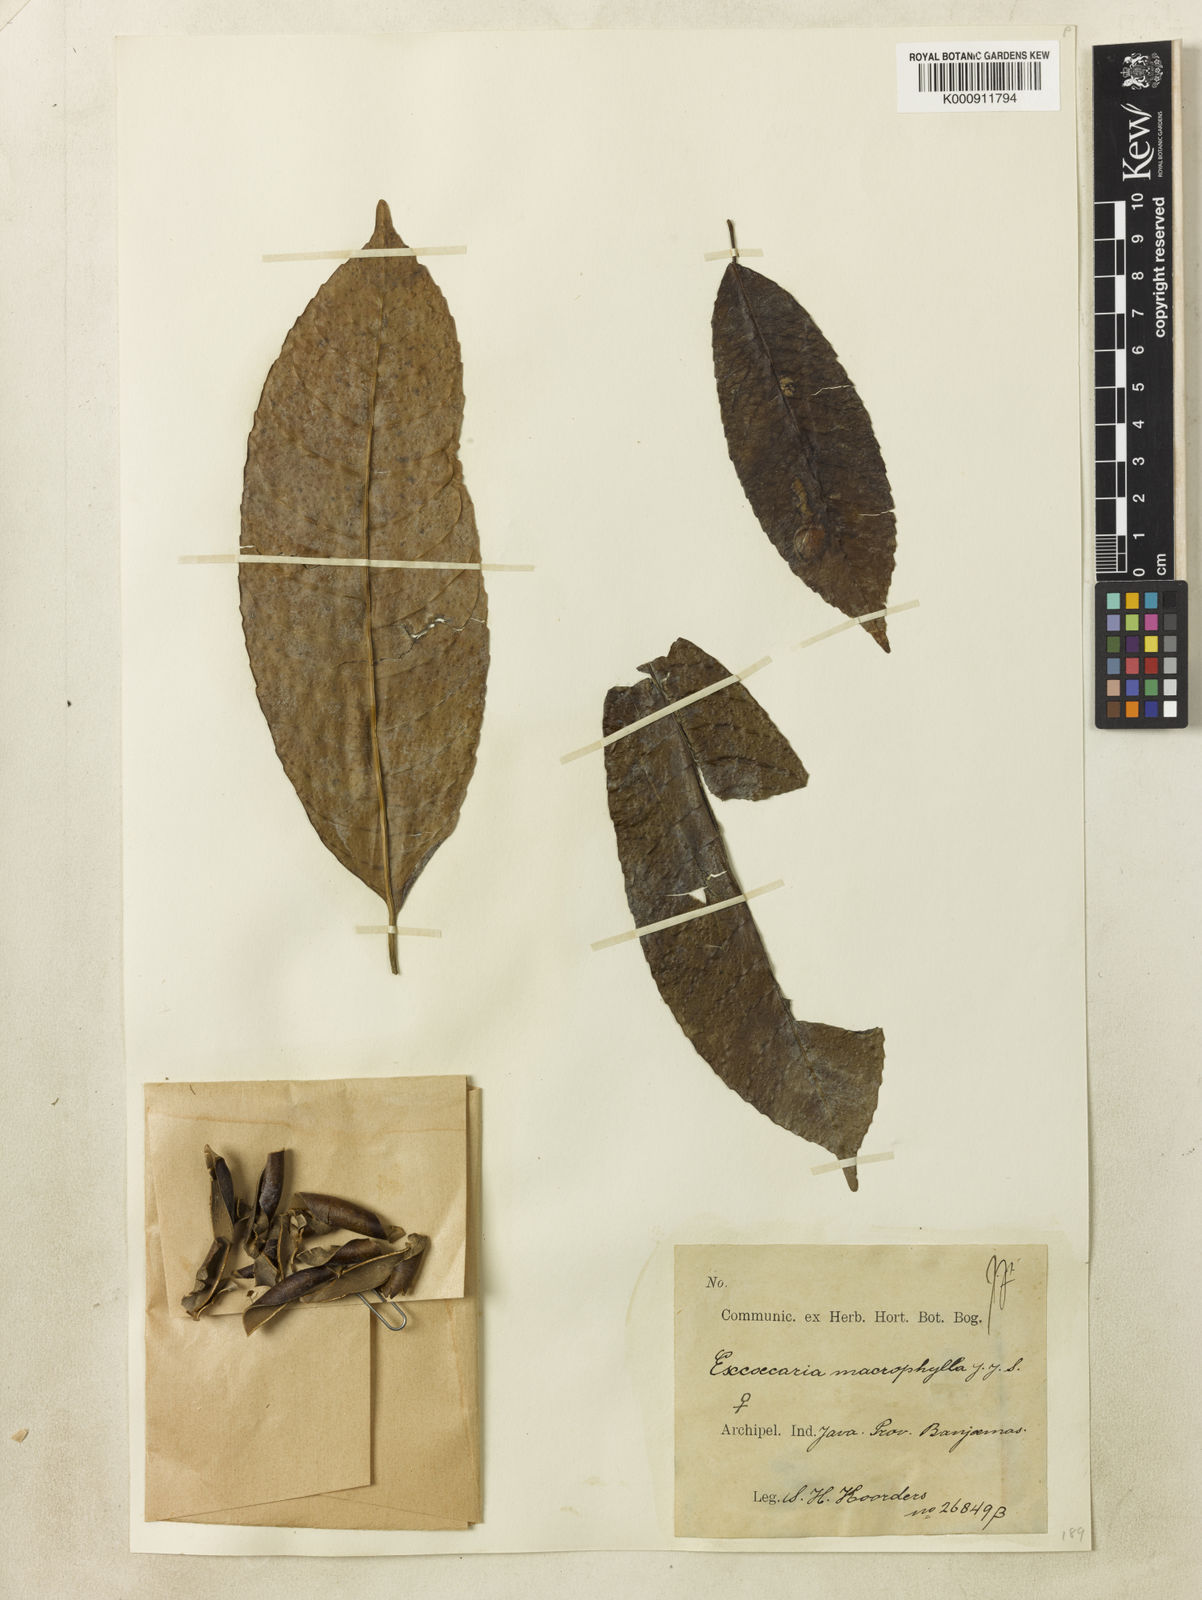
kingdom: Plantae
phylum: Tracheophyta
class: Magnoliopsida
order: Malpighiales
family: Euphorbiaceae
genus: Excoecaria
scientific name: Excoecaria
